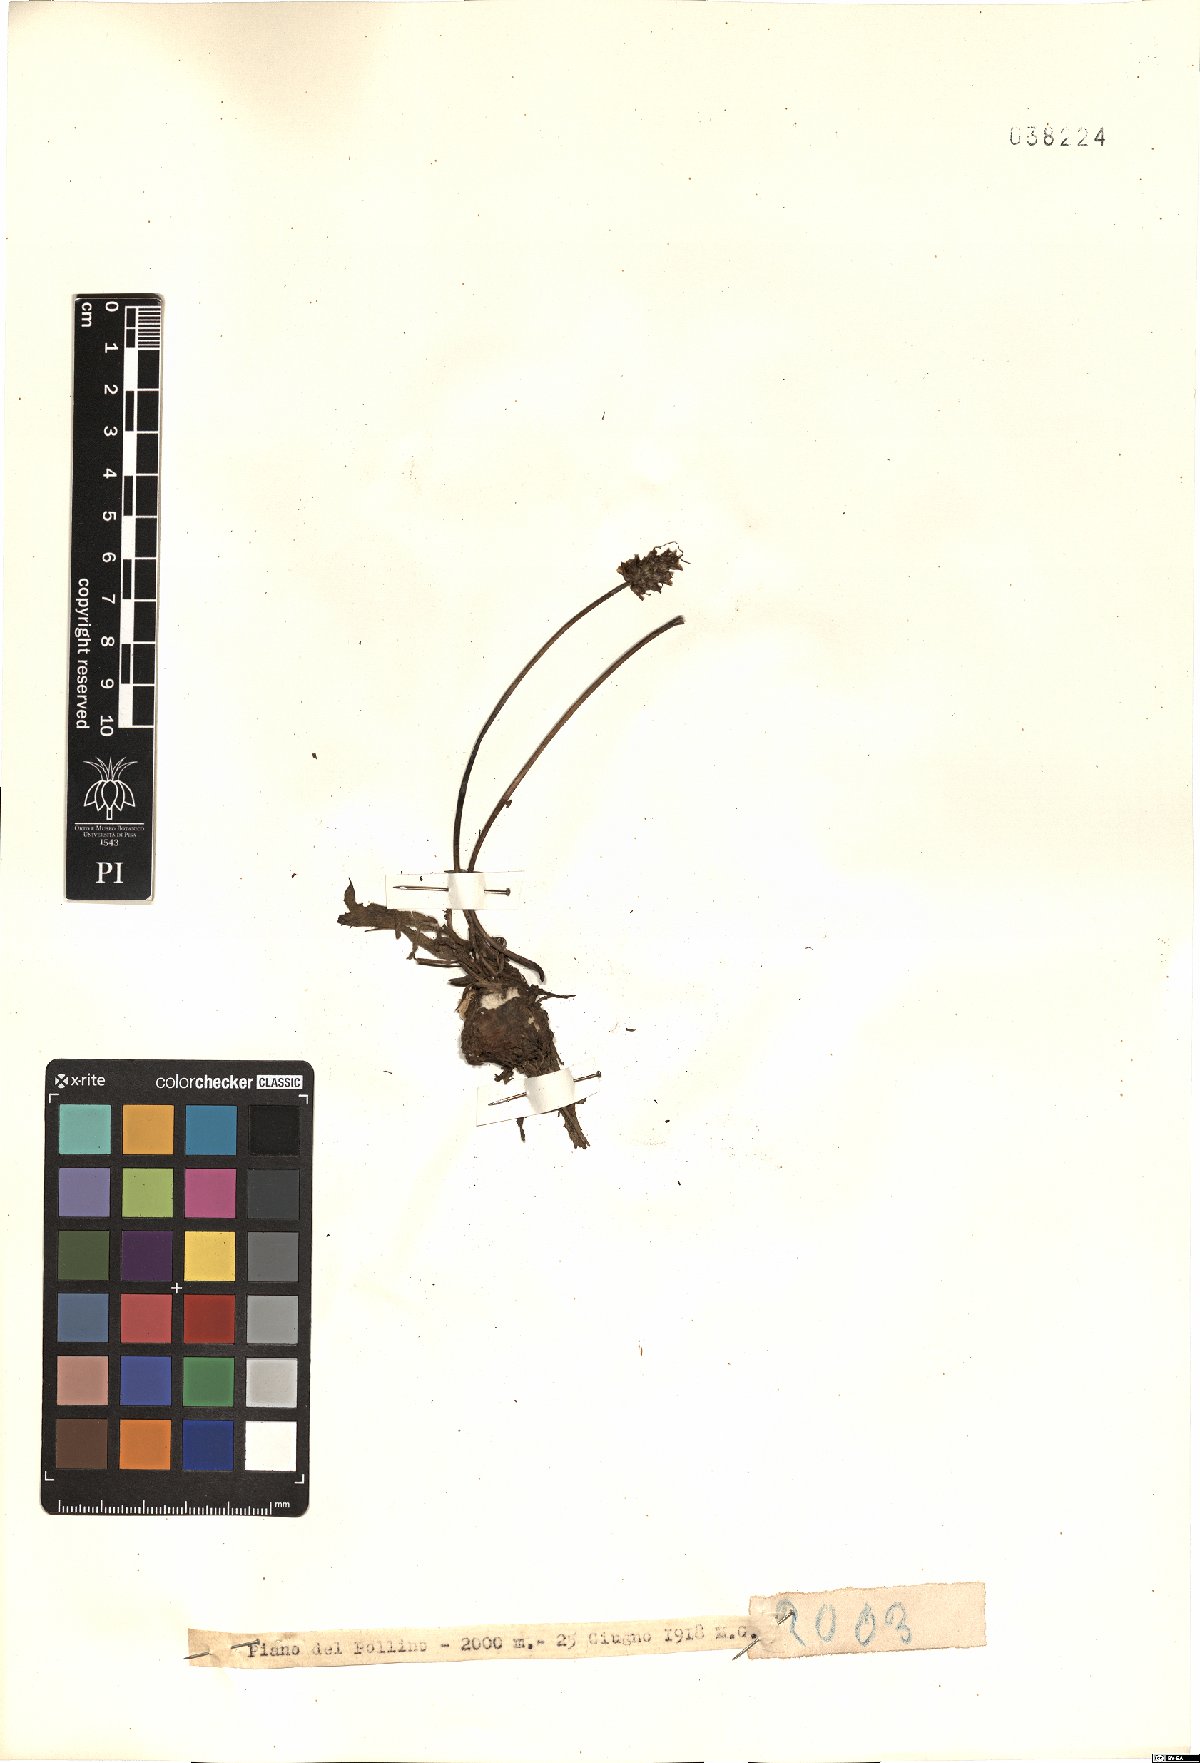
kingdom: Plantae
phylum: Tracheophyta
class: Magnoliopsida
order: Lamiales
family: Plantaginaceae
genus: Plantago
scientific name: Plantago
